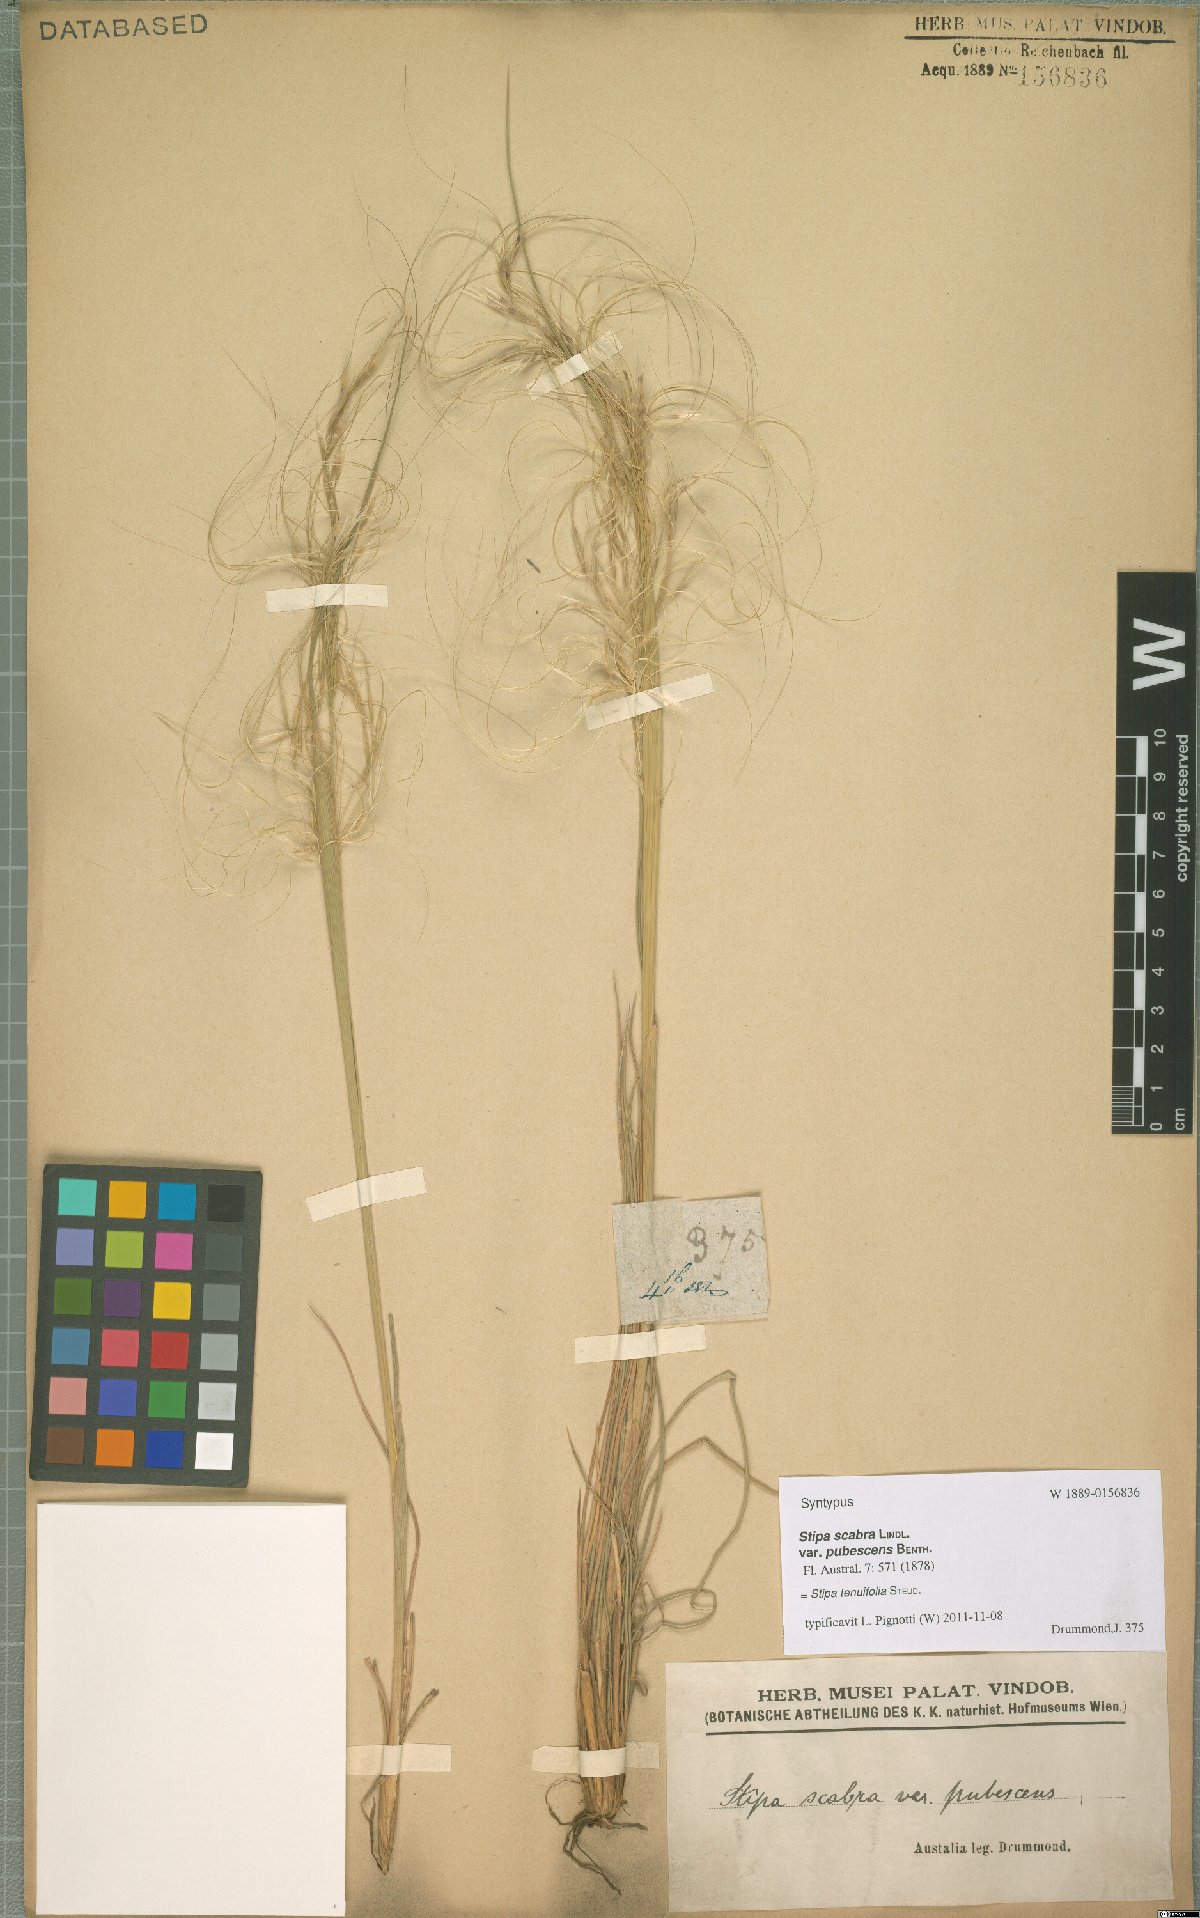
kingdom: Plantae
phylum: Tracheophyta
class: Liliopsida
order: Poales
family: Poaceae
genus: Austrostipa
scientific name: Austrostipa scabra
